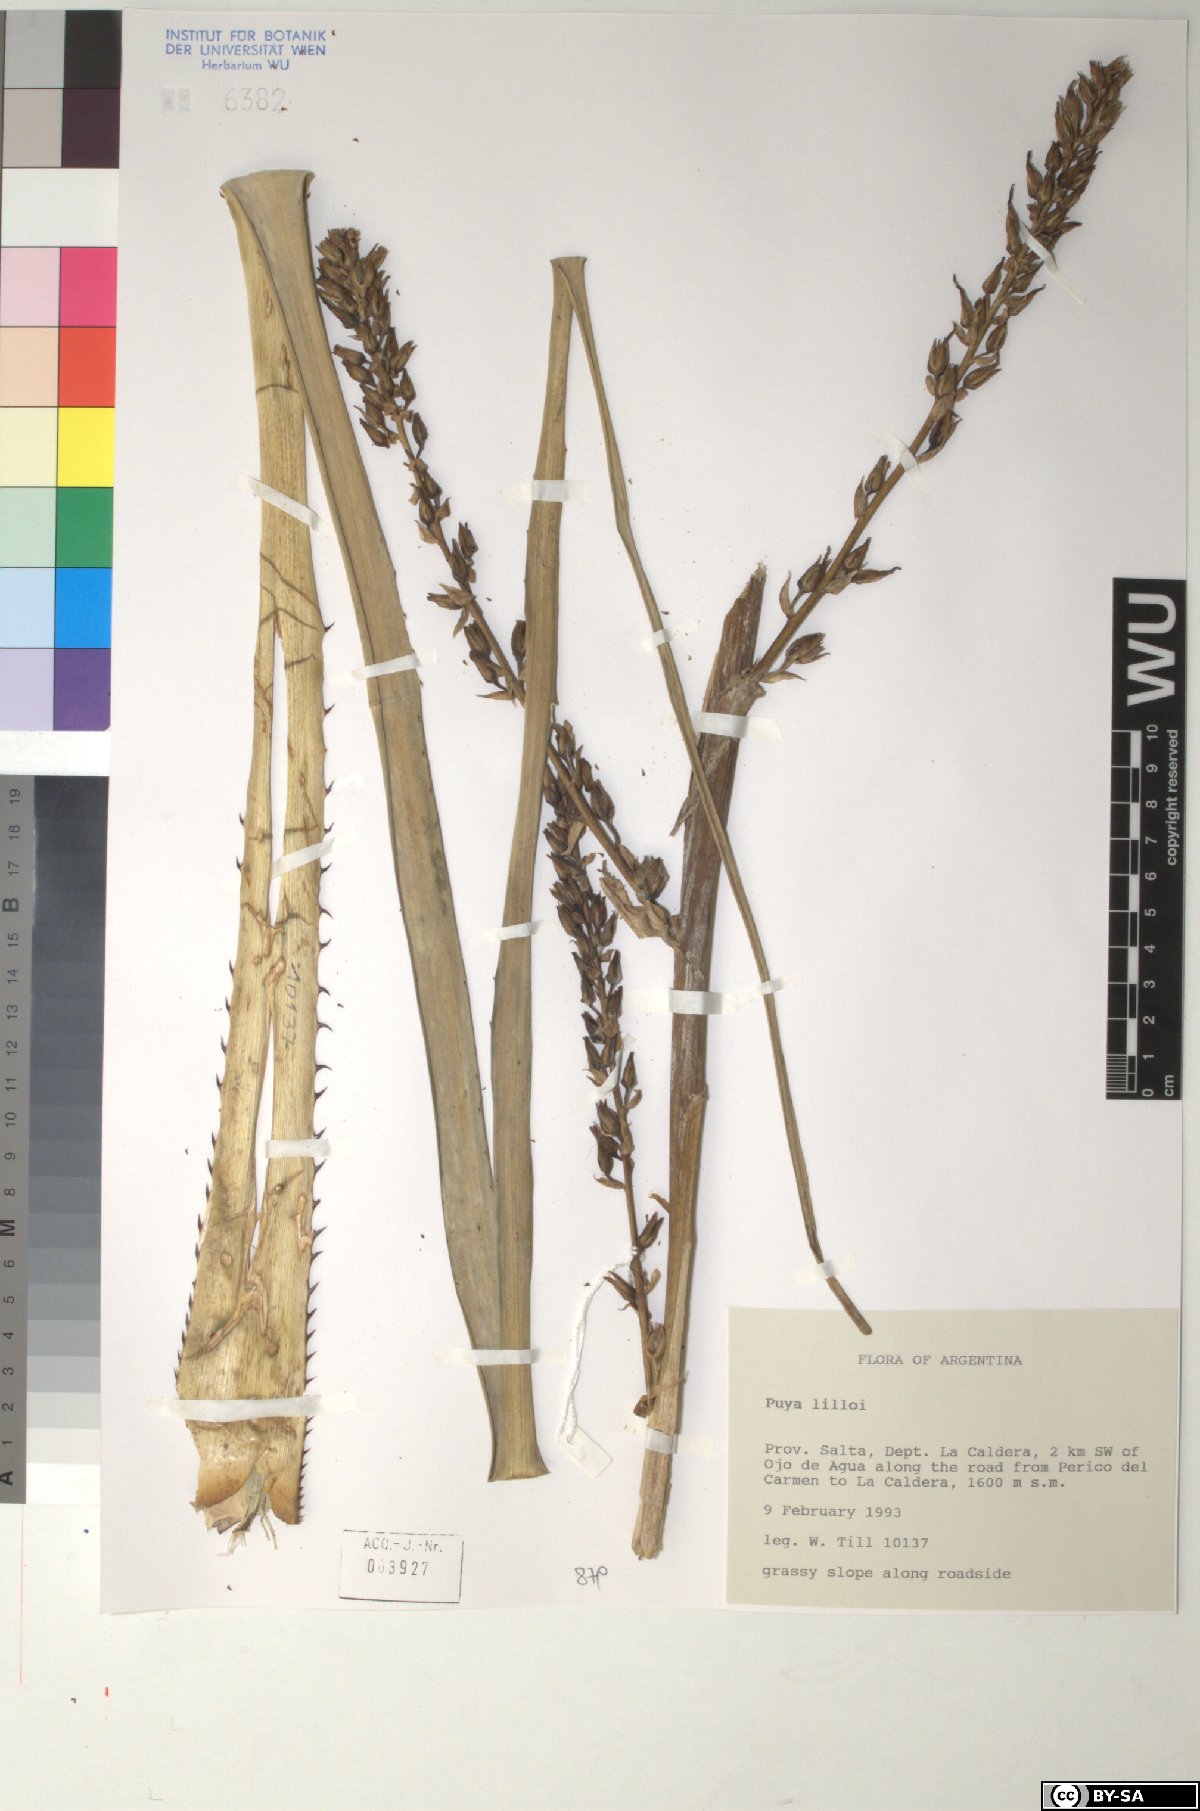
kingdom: Plantae
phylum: Tracheophyta
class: Liliopsida
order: Poales
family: Bromeliaceae
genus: Puya
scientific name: Puya lilloi
